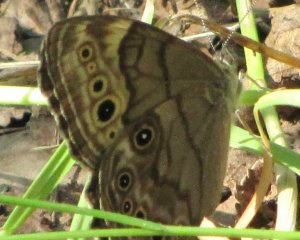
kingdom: Animalia
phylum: Arthropoda
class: Insecta
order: Lepidoptera
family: Nymphalidae
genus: Lethe
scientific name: Lethe anthedon
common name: Northern Pearly-Eye
